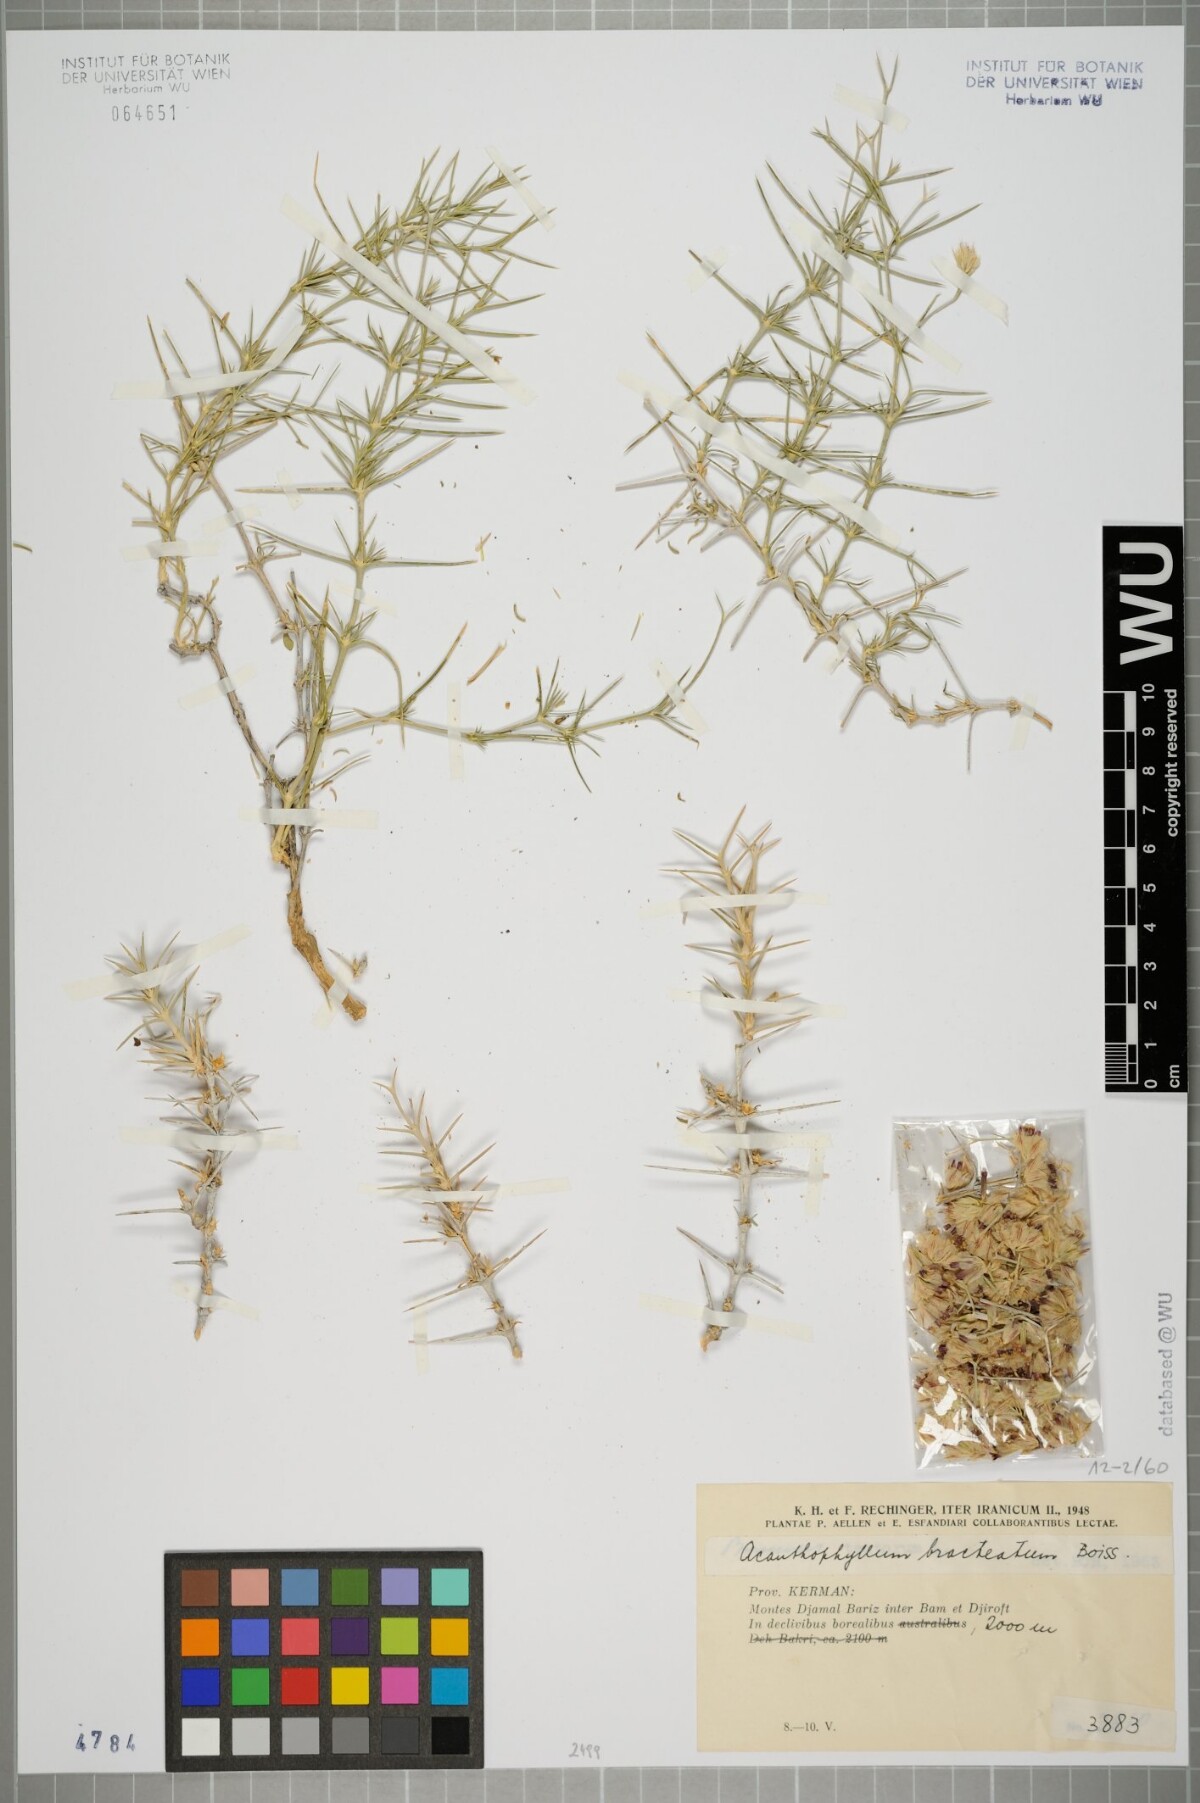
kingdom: Plantae
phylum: Tracheophyta
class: Magnoliopsida
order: Caryophyllales
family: Caryophyllaceae
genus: Acanthophyllum
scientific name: Acanthophyllum bracteatum
